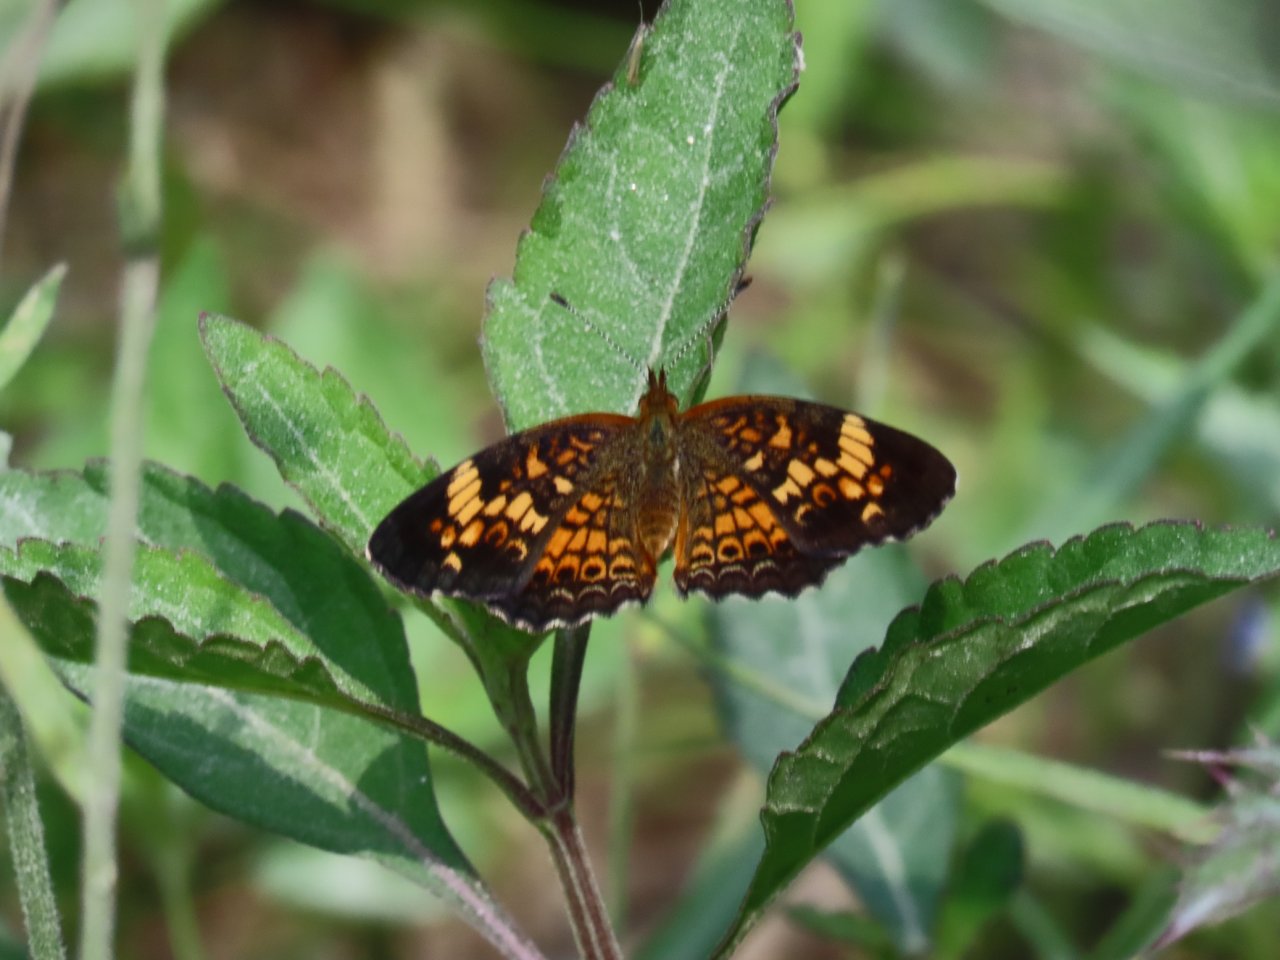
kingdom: Animalia
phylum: Arthropoda
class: Insecta
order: Lepidoptera
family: Nymphalidae
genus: Phyciodes
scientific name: Phyciodes tharos
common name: Pearl Crescent
